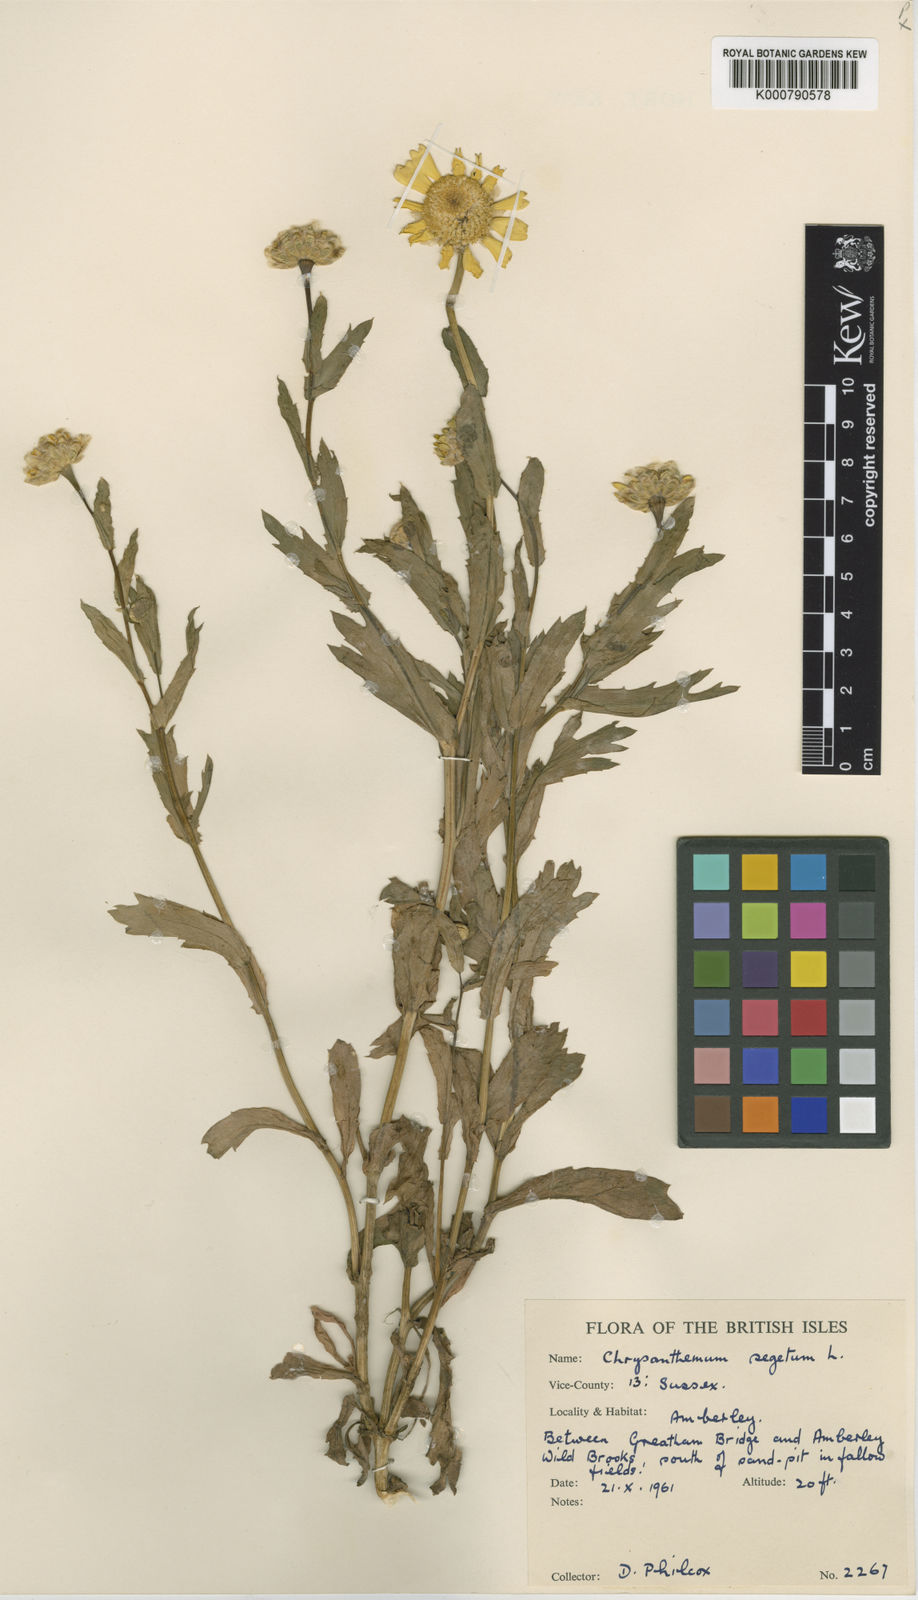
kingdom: Plantae
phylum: Tracheophyta
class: Magnoliopsida
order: Asterales
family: Asteraceae
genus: Glebionis
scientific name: Glebionis
